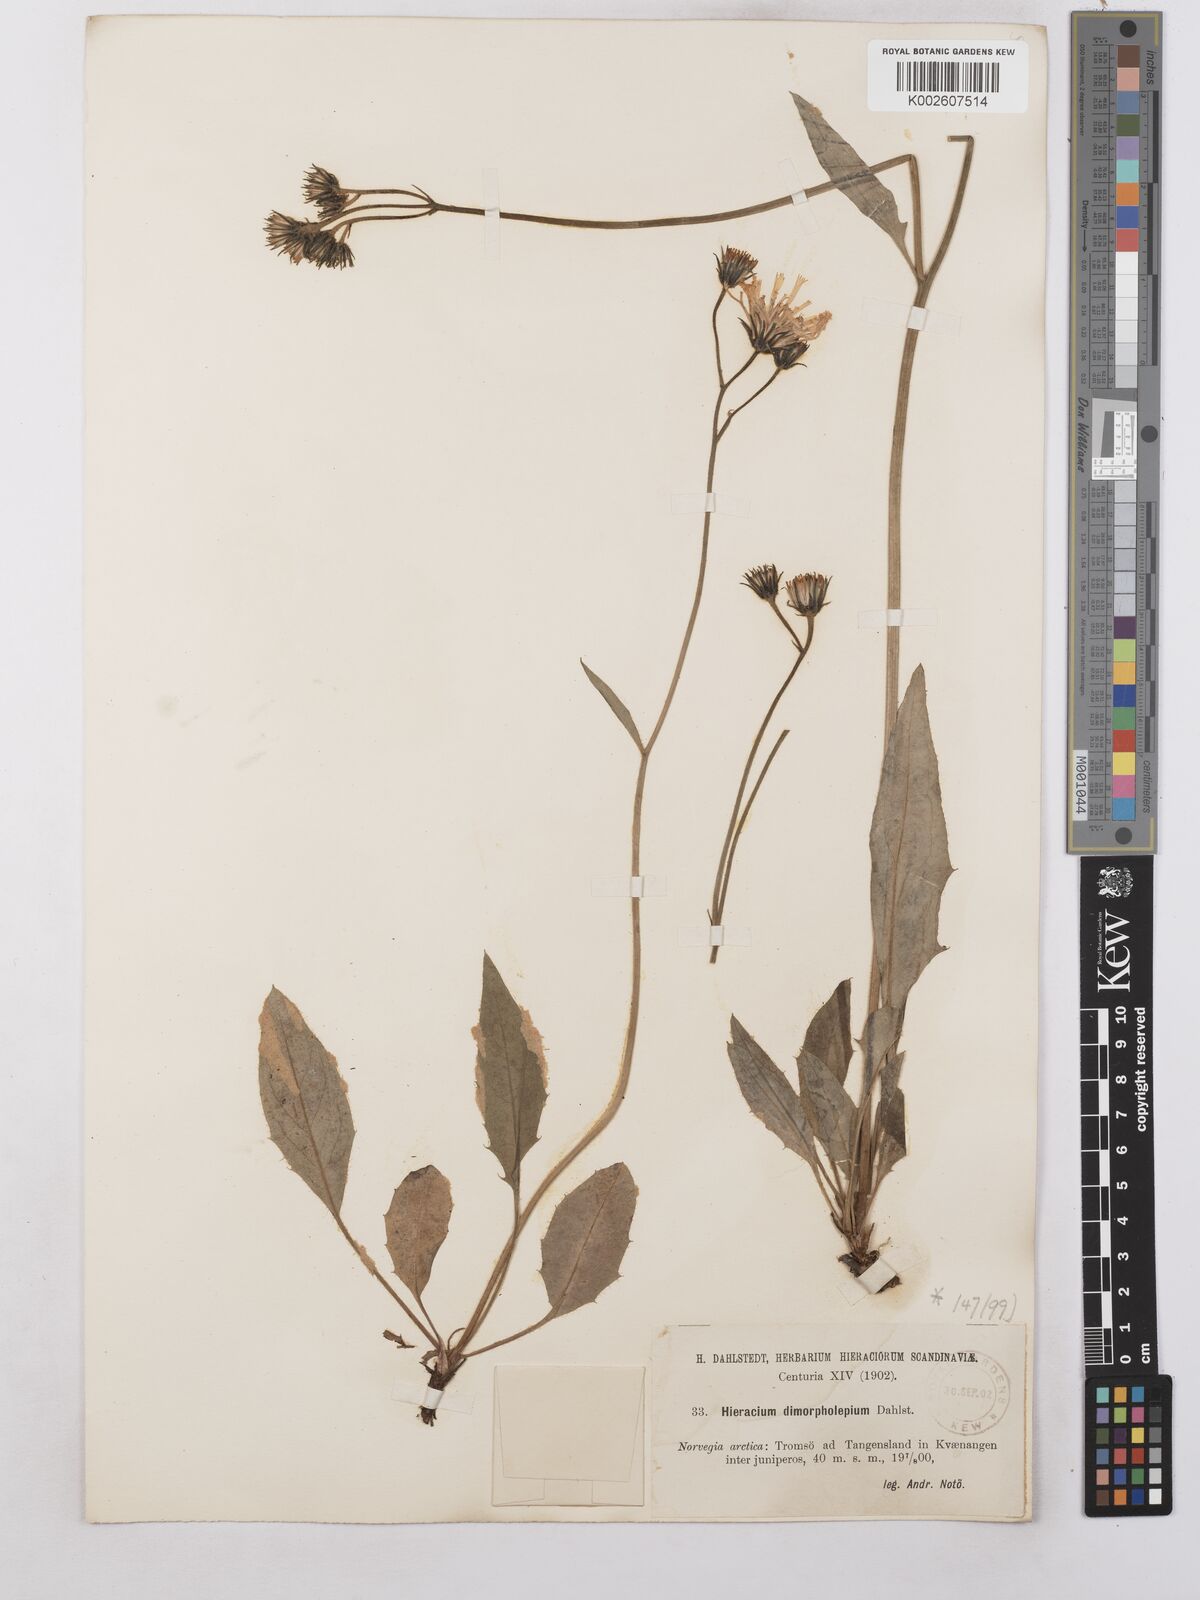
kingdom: Plantae
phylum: Tracheophyta
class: Magnoliopsida
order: Asterales
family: Asteraceae
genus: Hieracium
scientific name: Hieracium caesium
